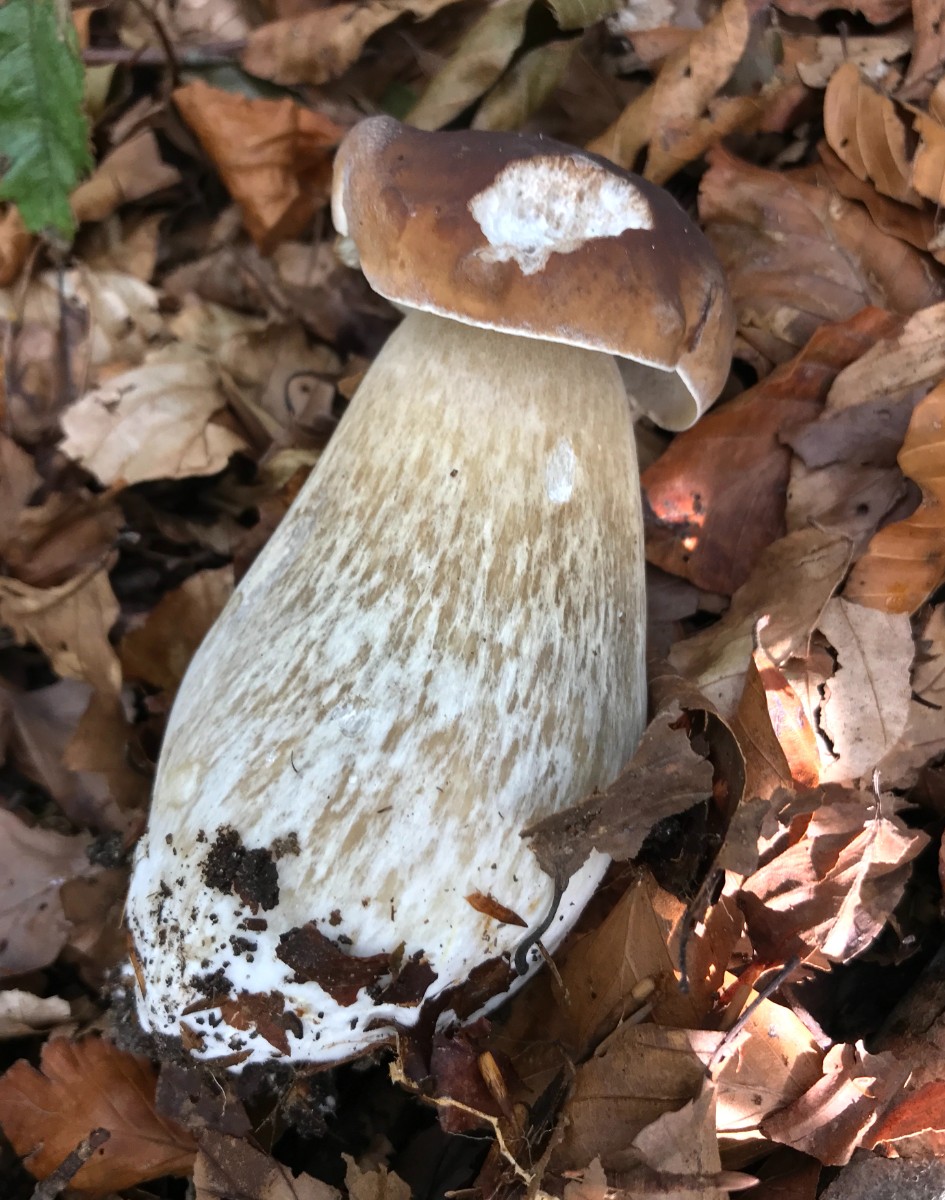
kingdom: Fungi
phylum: Basidiomycota
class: Agaricomycetes
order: Boletales
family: Boletaceae
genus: Boletus
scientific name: Boletus edulis
